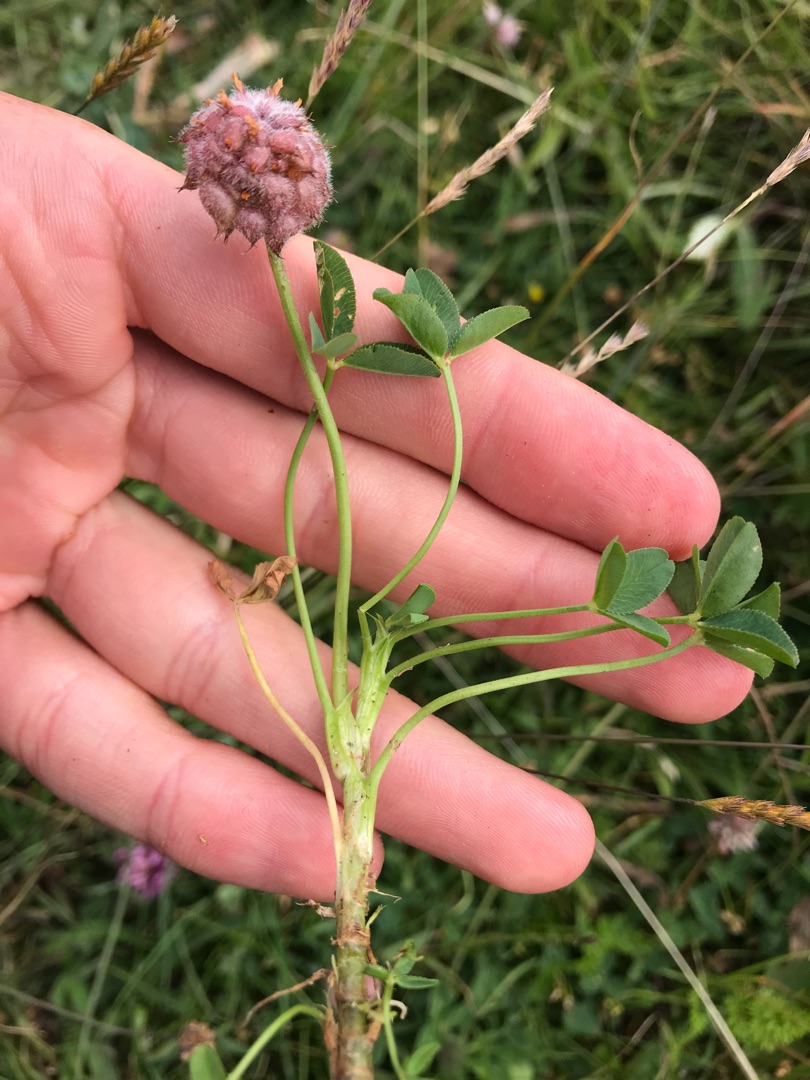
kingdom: Plantae
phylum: Tracheophyta
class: Magnoliopsida
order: Fabales
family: Fabaceae
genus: Trifolium
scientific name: Trifolium fragiferum
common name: Jordbær-kløver
